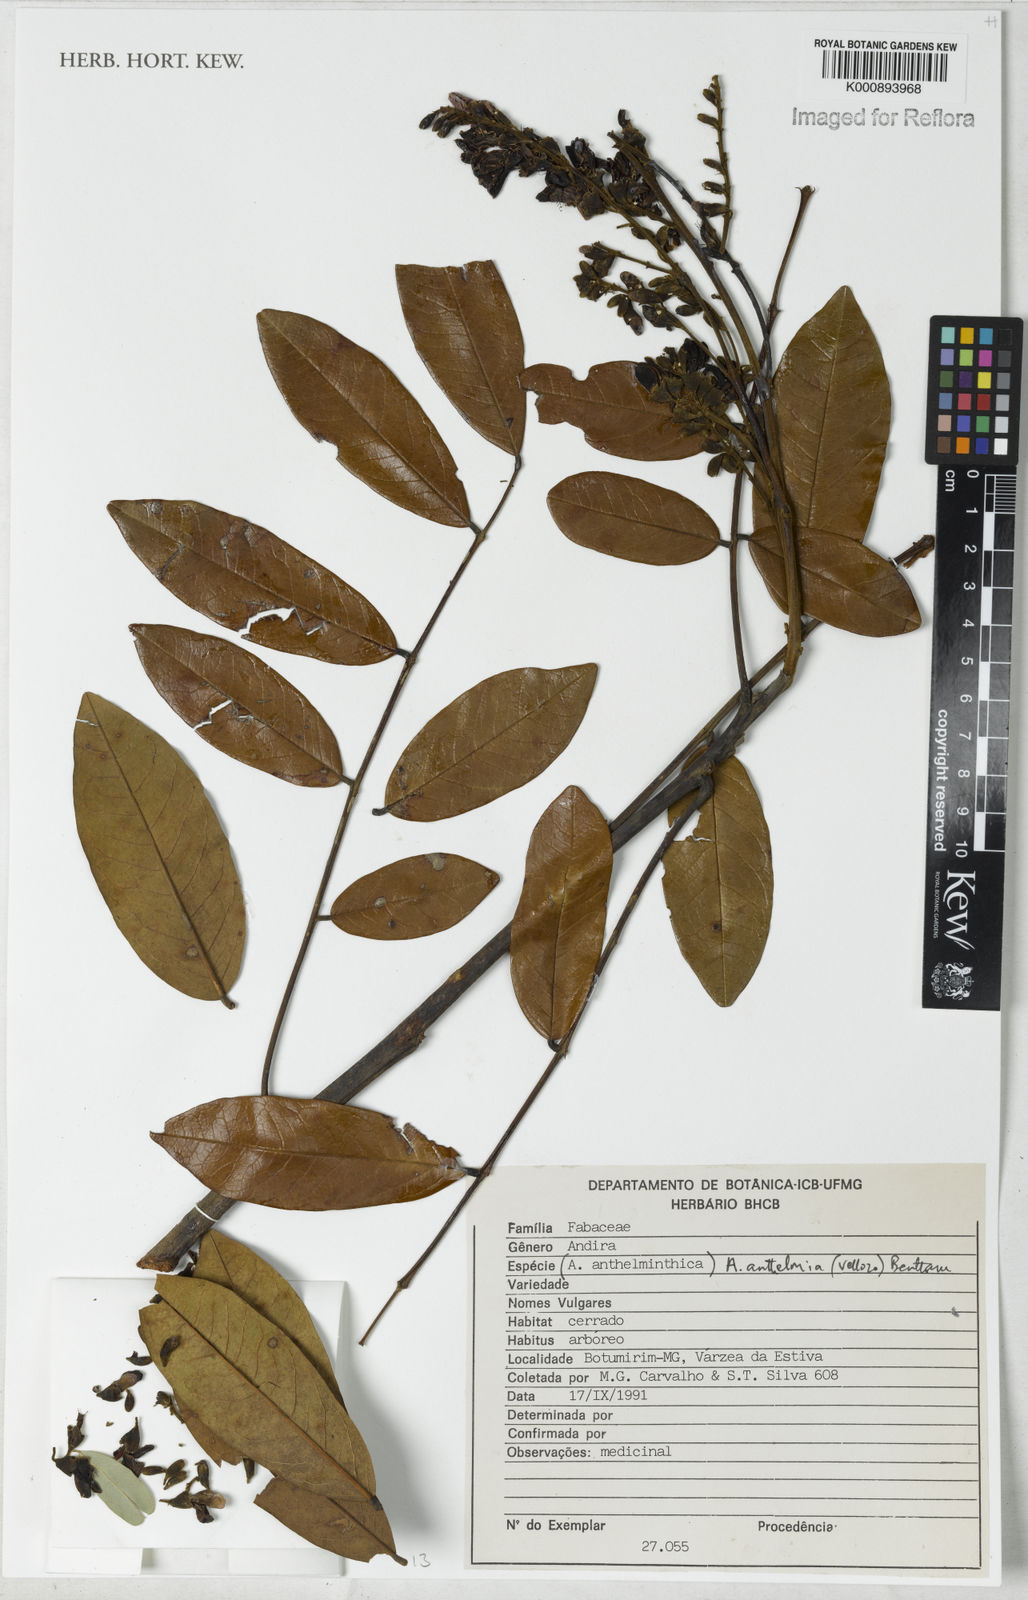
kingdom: Plantae
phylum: Tracheophyta
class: Magnoliopsida
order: Fabales
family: Fabaceae
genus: Andira
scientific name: Andira
